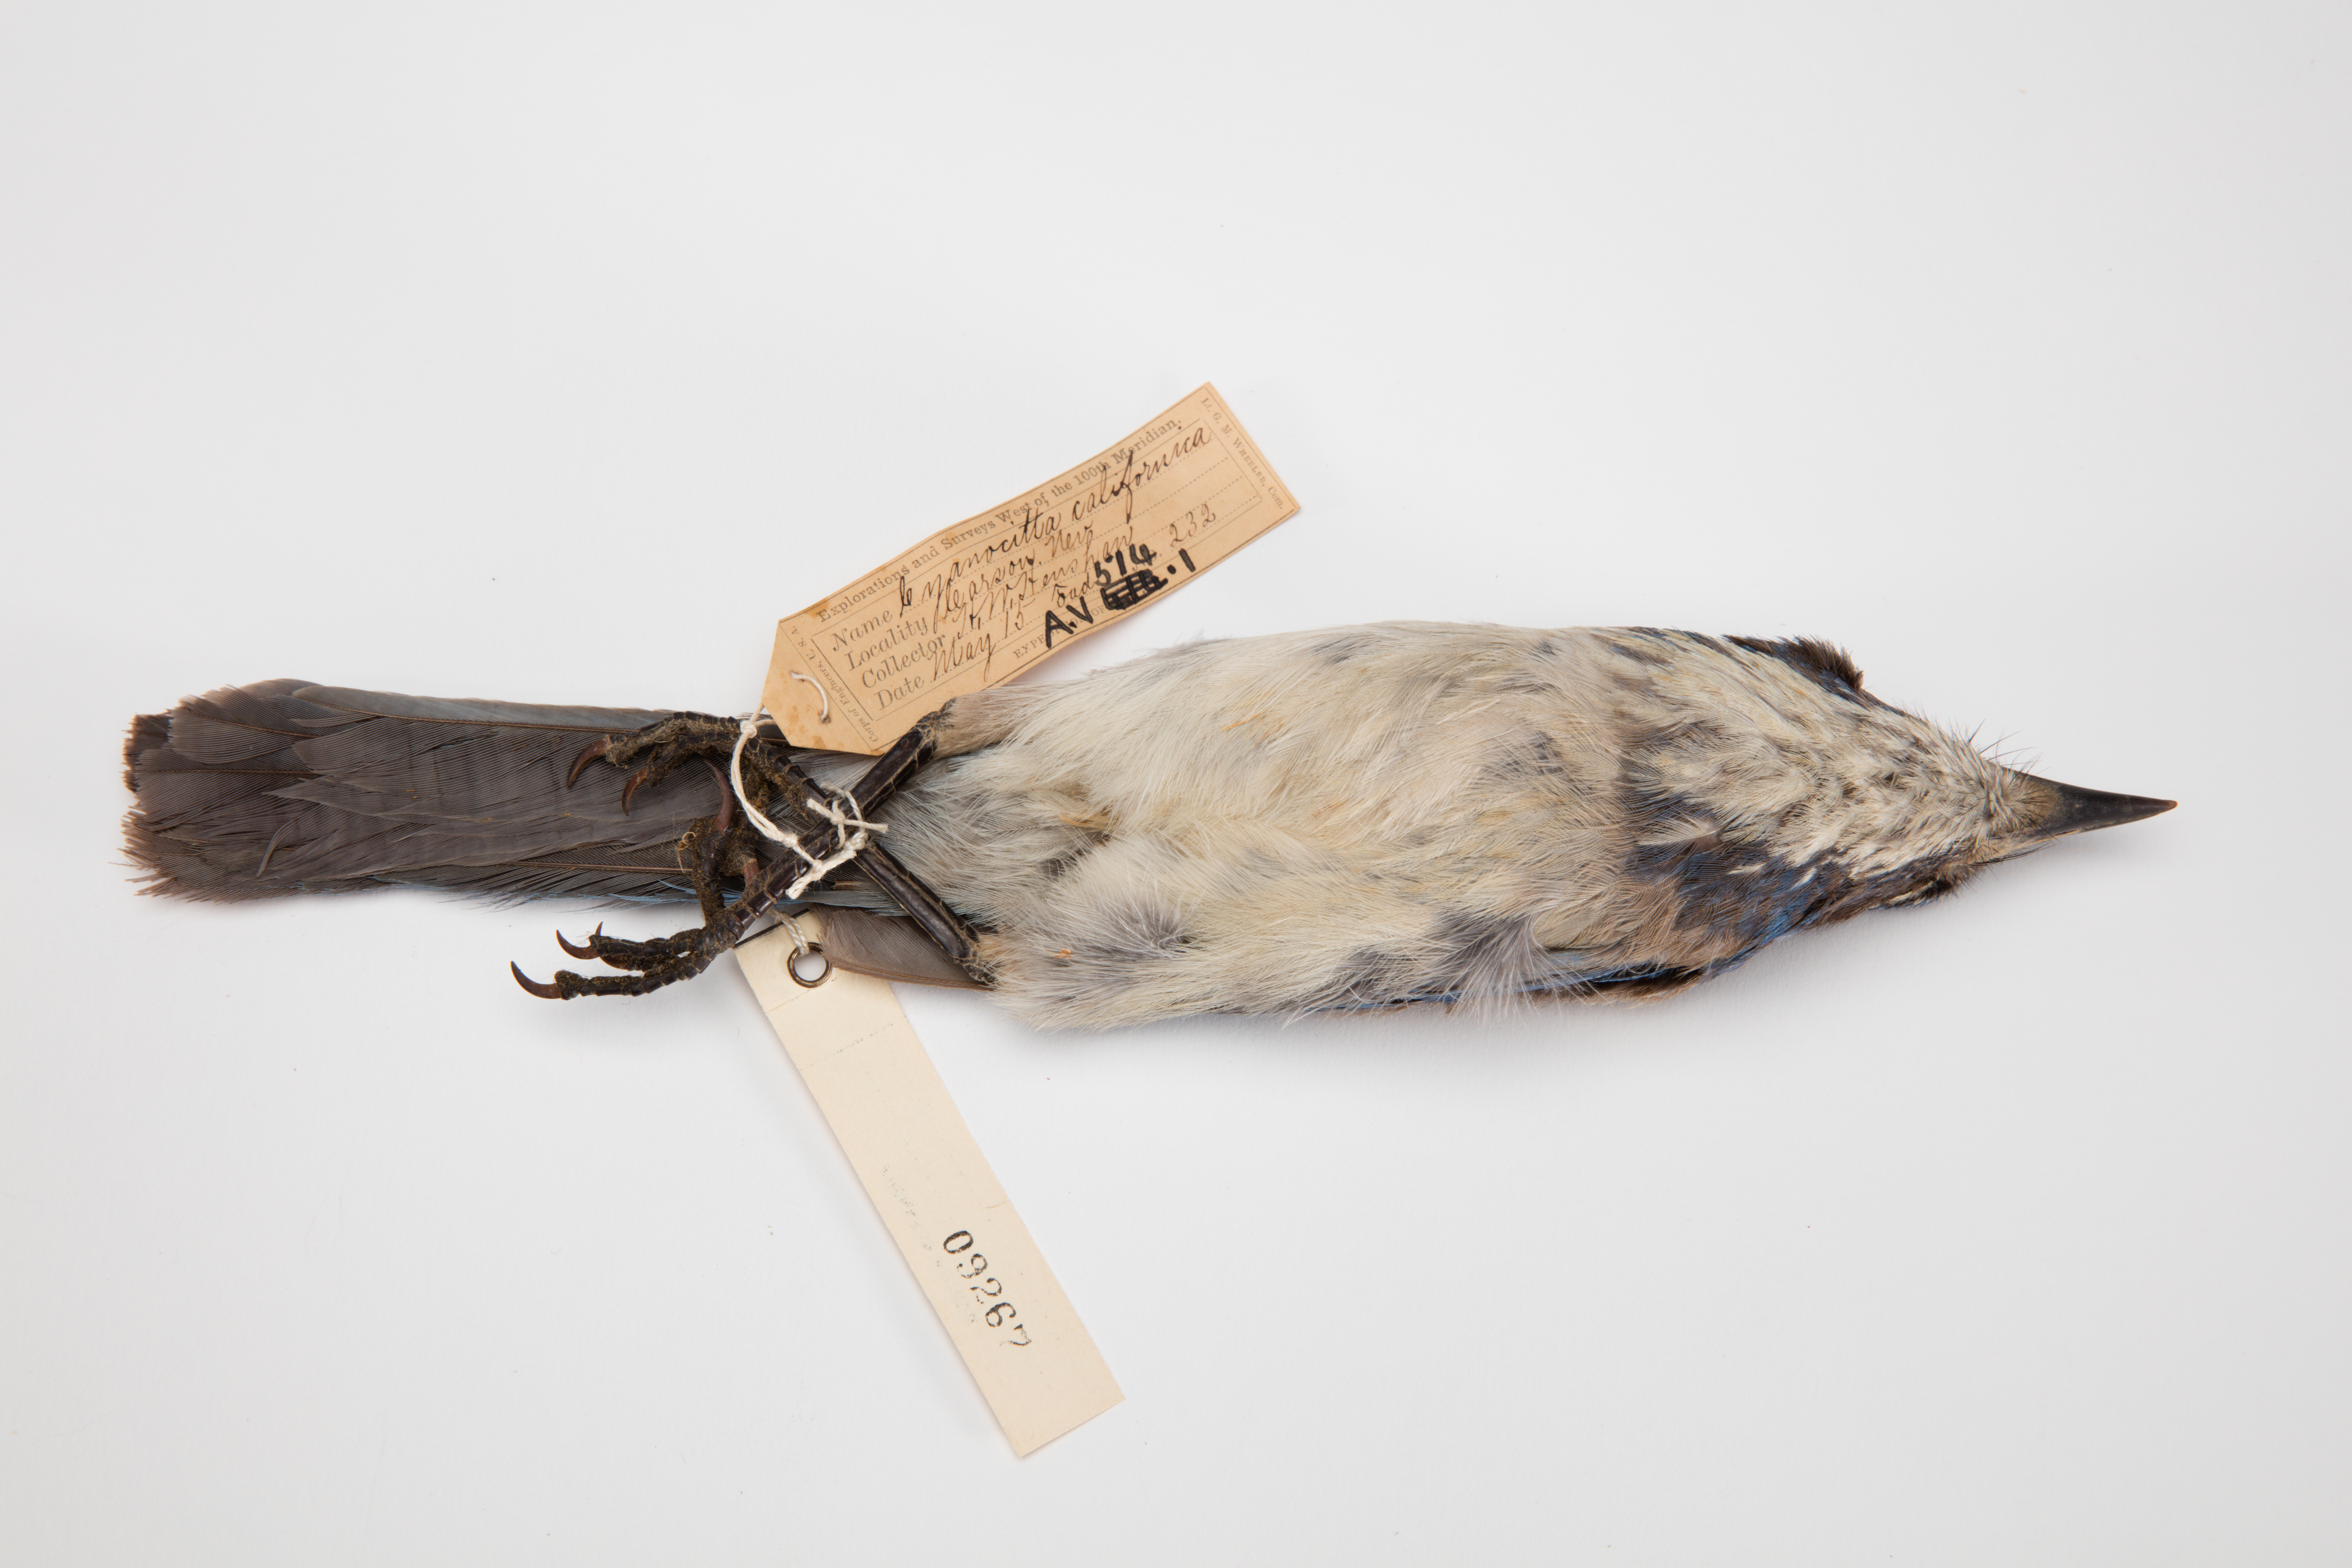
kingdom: Animalia
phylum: Chordata
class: Aves
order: Passeriformes
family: Corvidae
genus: Aphelocoma
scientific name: Aphelocoma coerulescens
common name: Florida scrub jay
